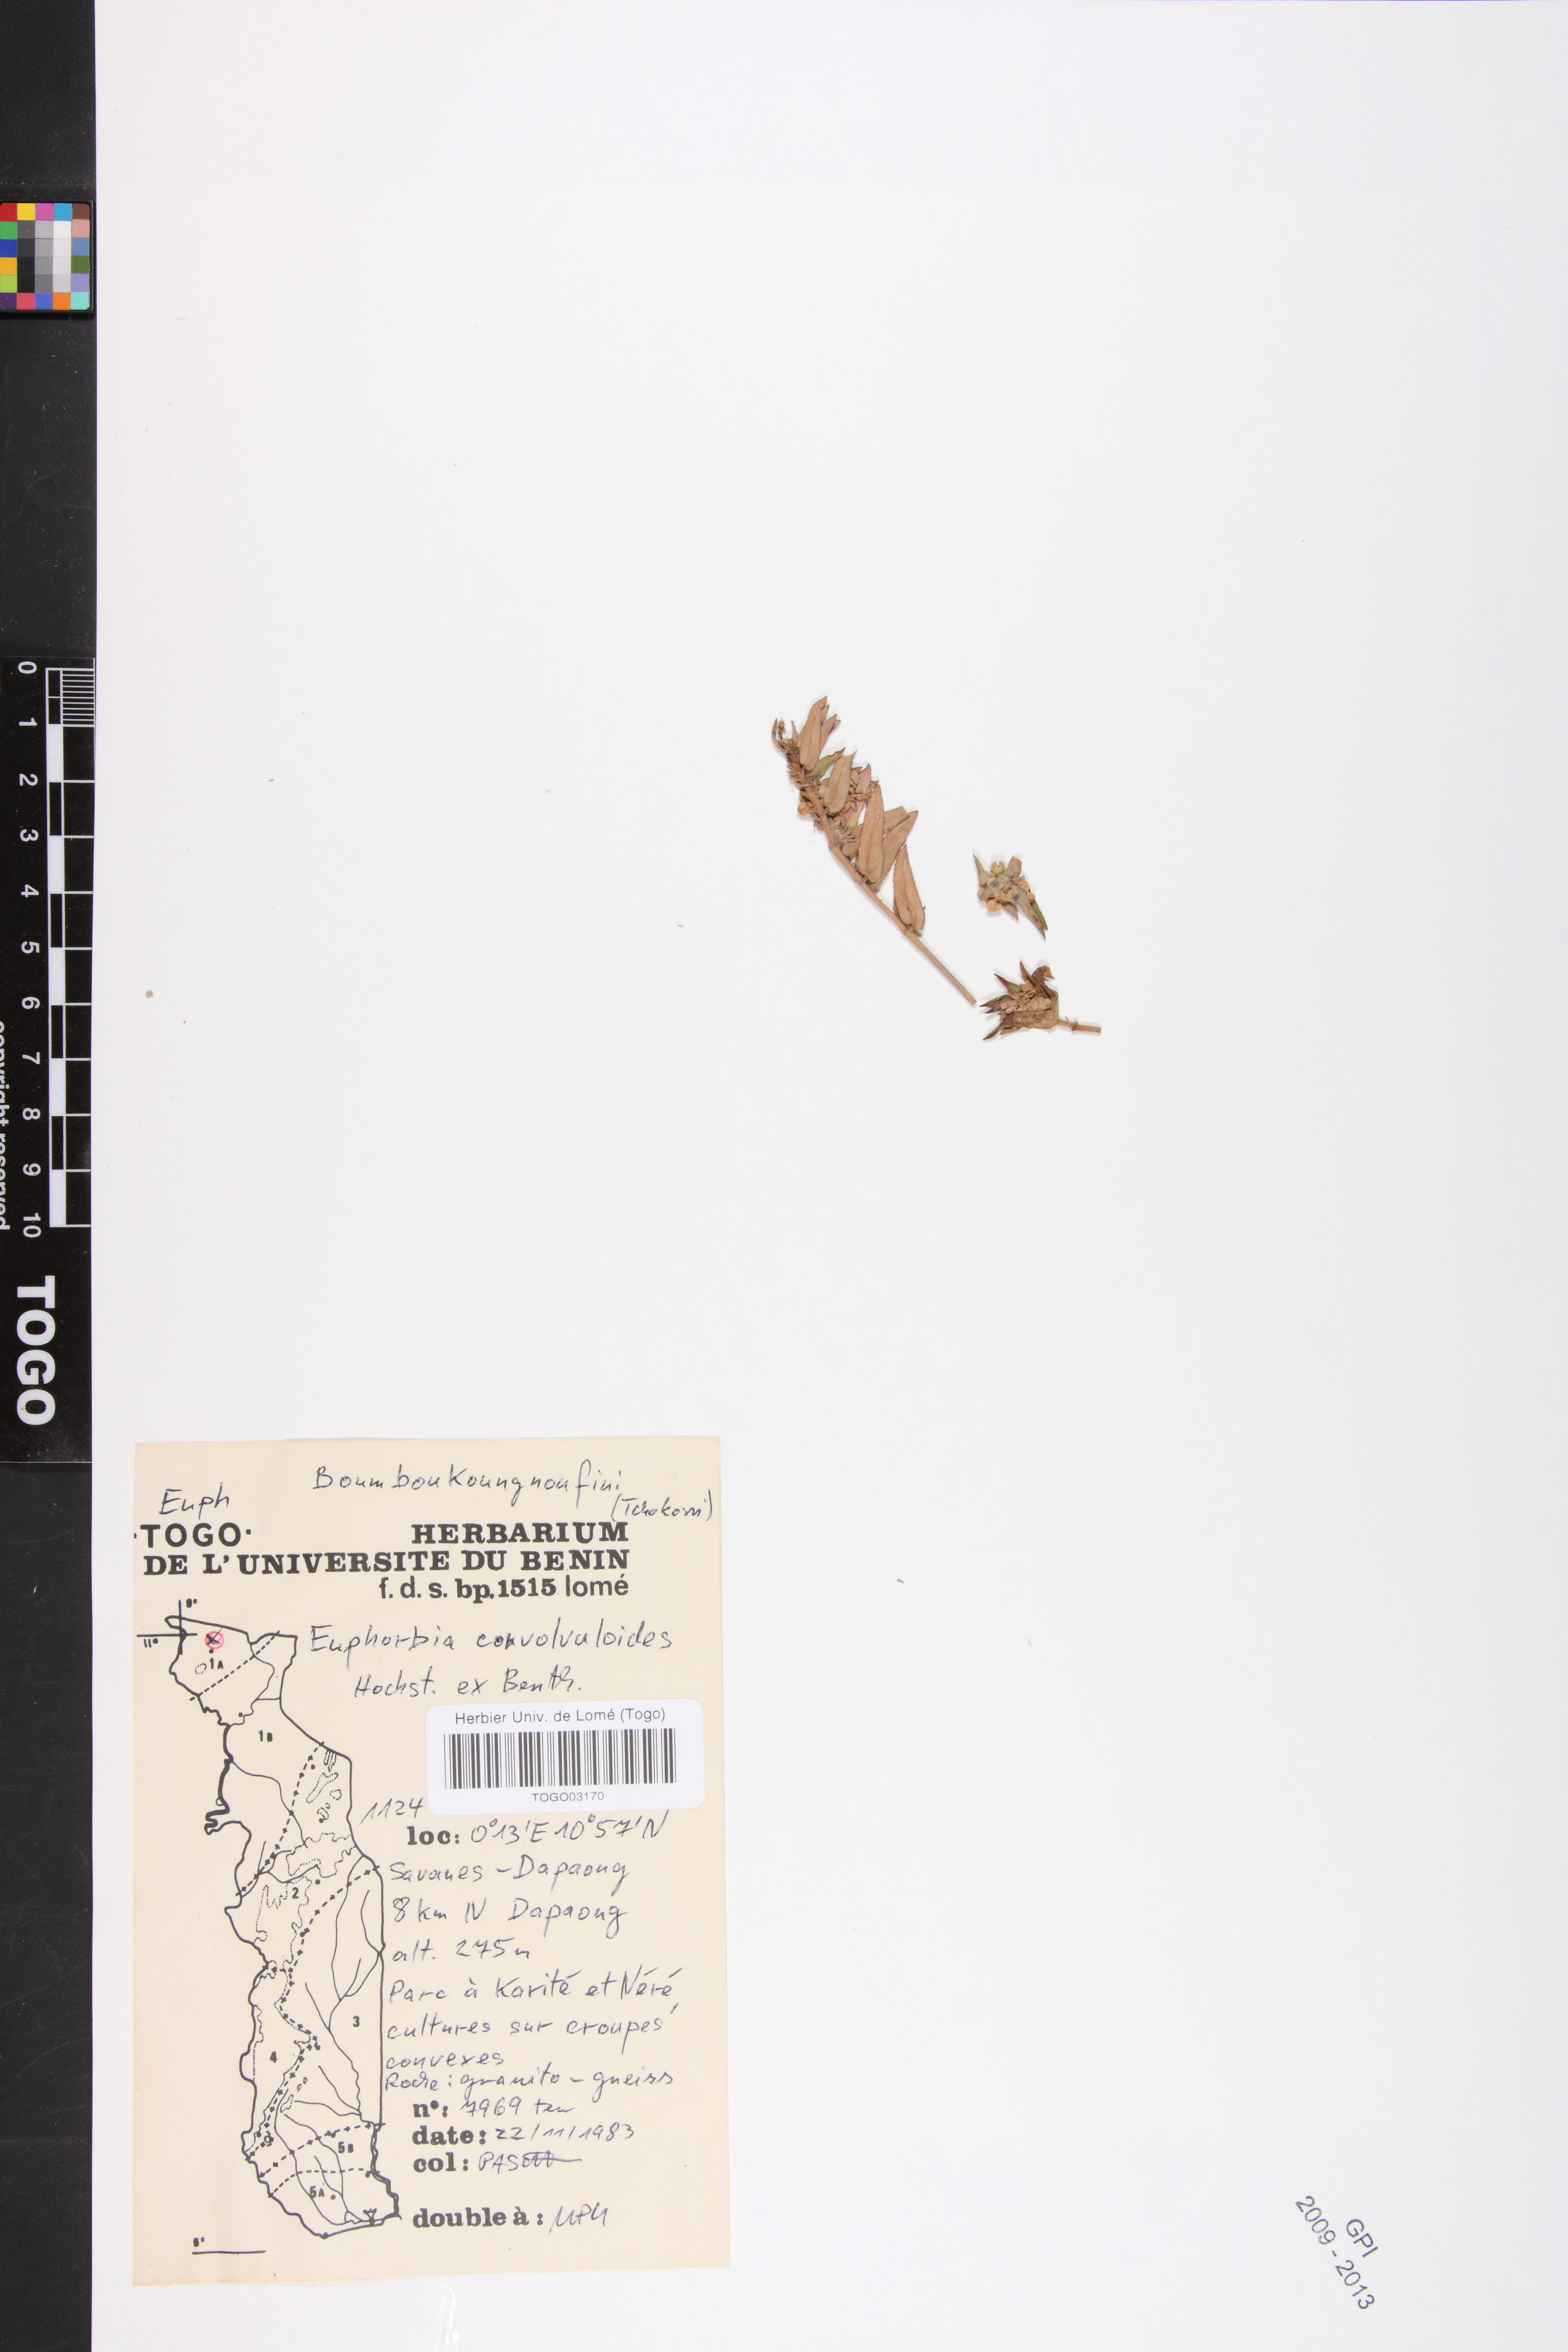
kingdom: Plantae
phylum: Tracheophyta
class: Magnoliopsida
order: Malpighiales
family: Euphorbiaceae
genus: Euphorbia
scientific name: Euphorbia convolvuloides
